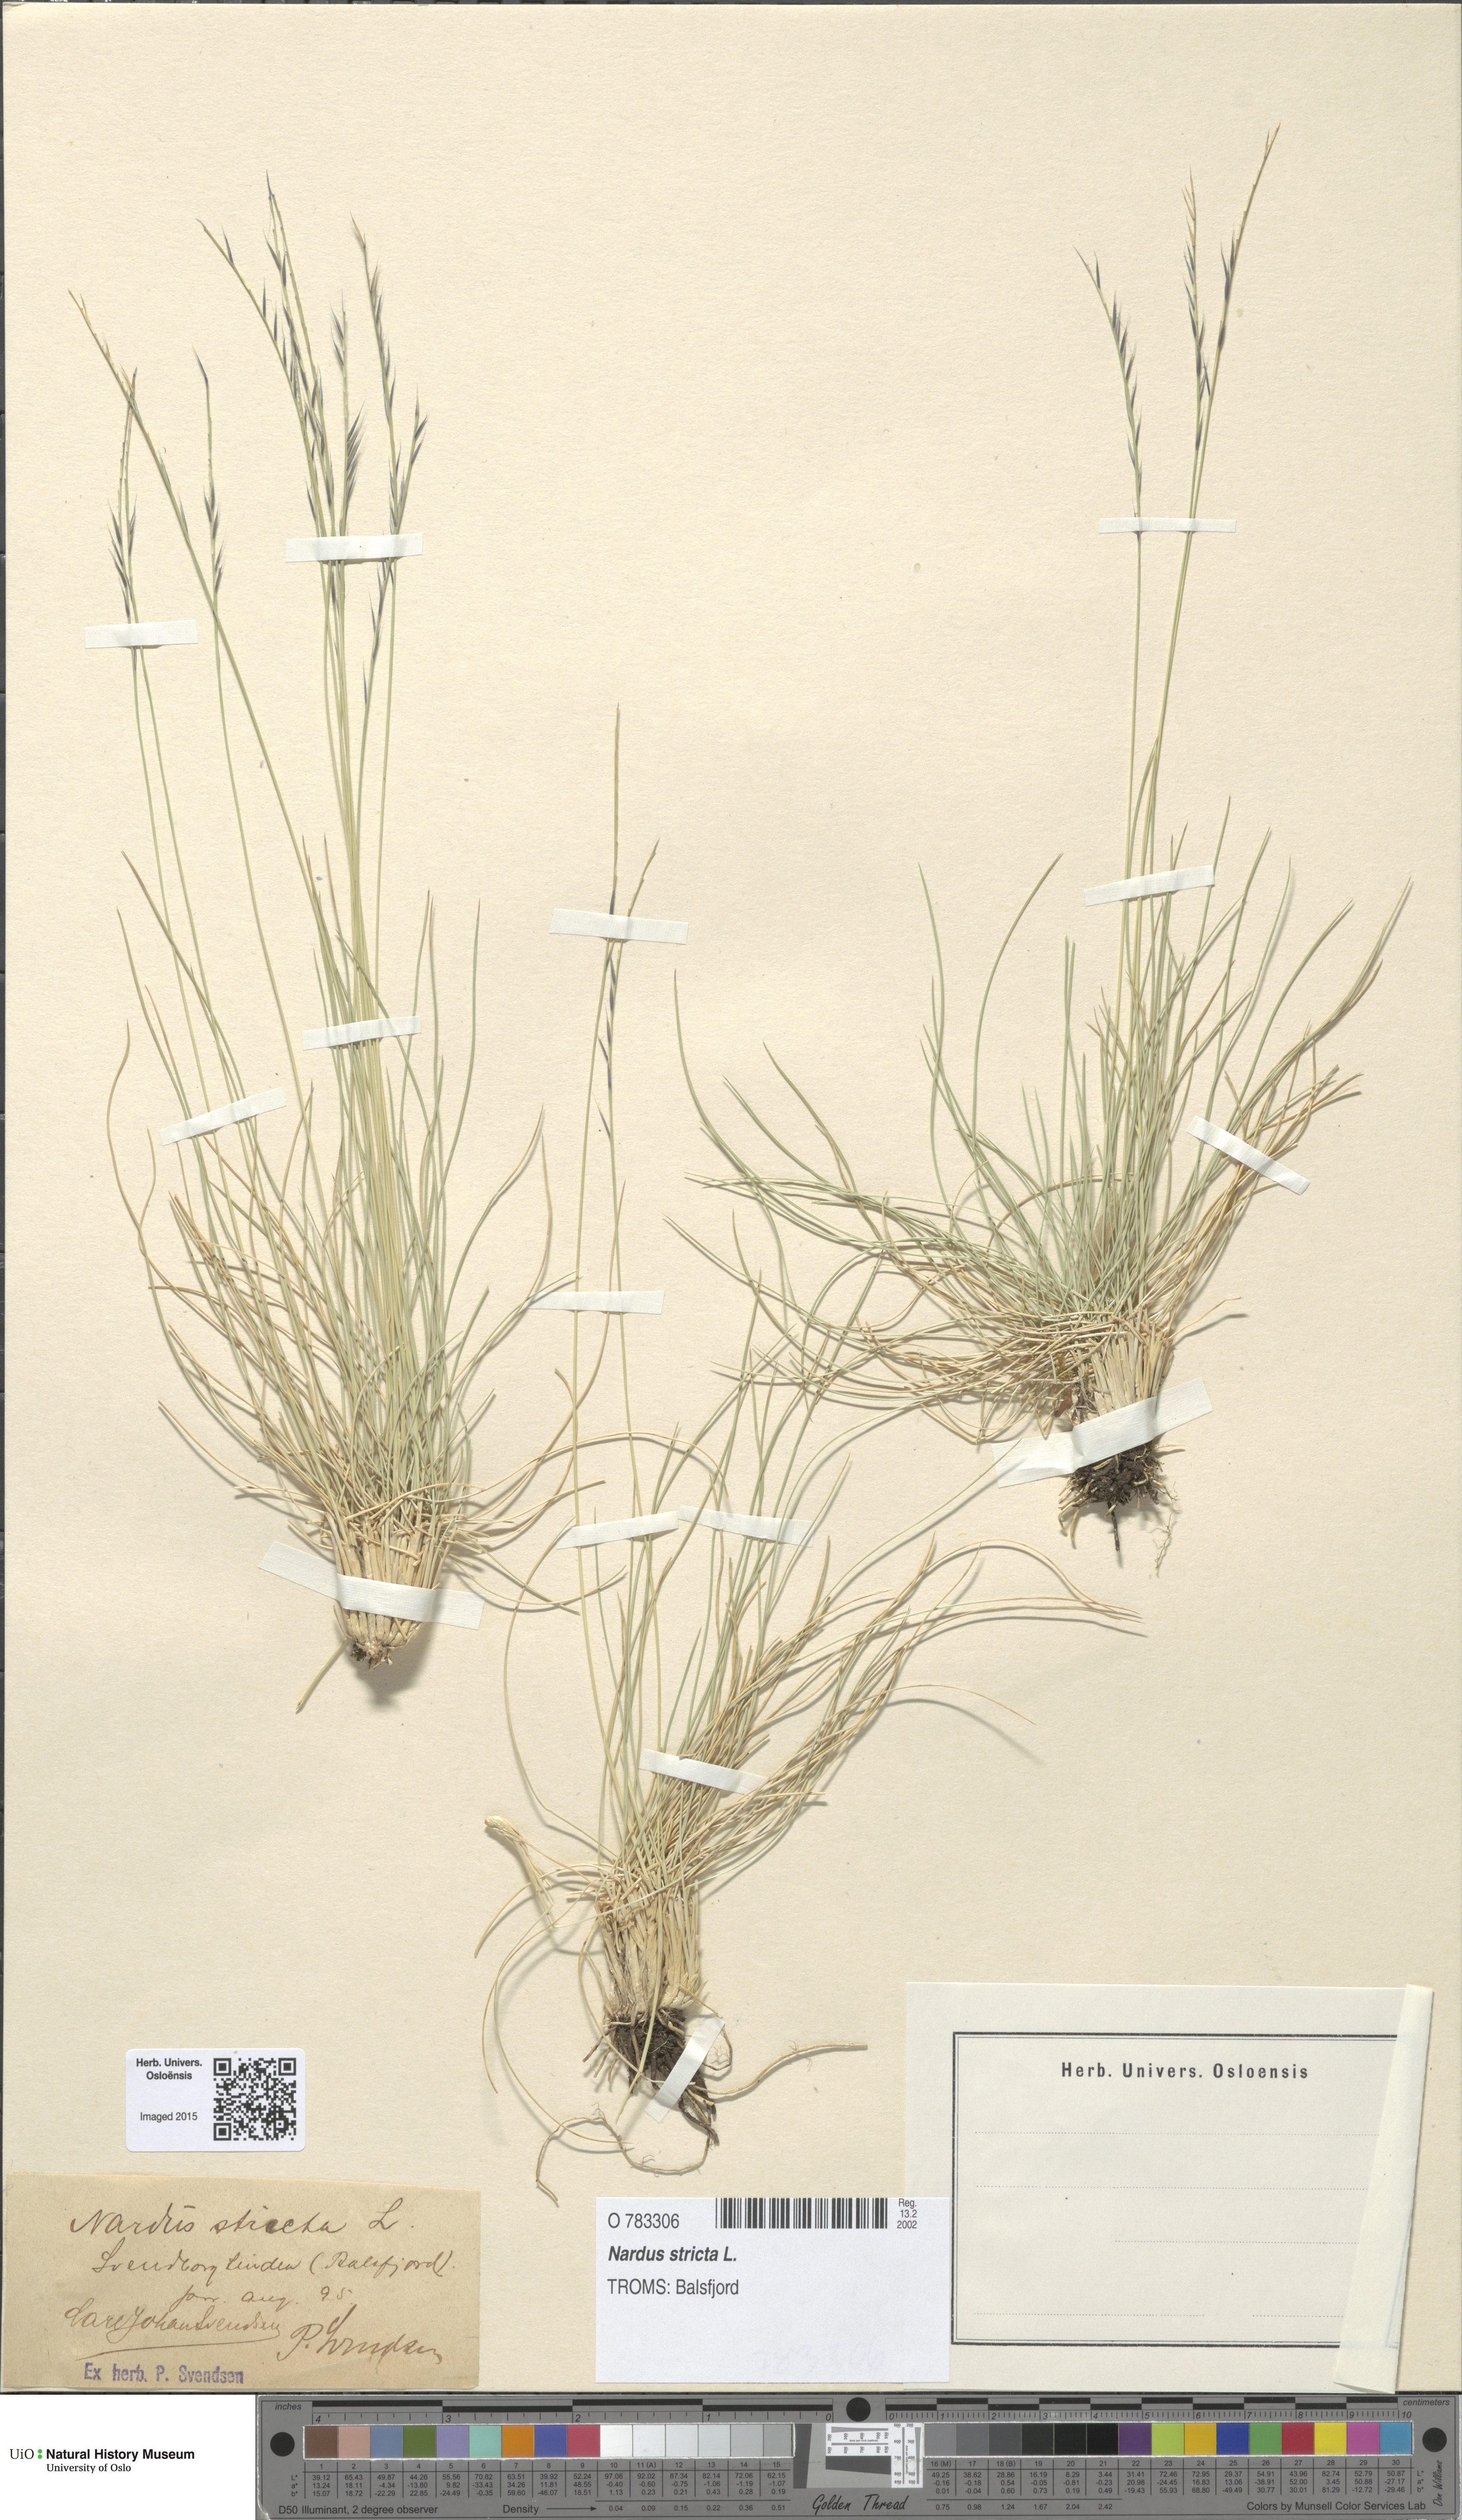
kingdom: Plantae
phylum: Tracheophyta
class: Liliopsida
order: Poales
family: Poaceae
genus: Nardus
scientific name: Nardus stricta
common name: Mat-grass
